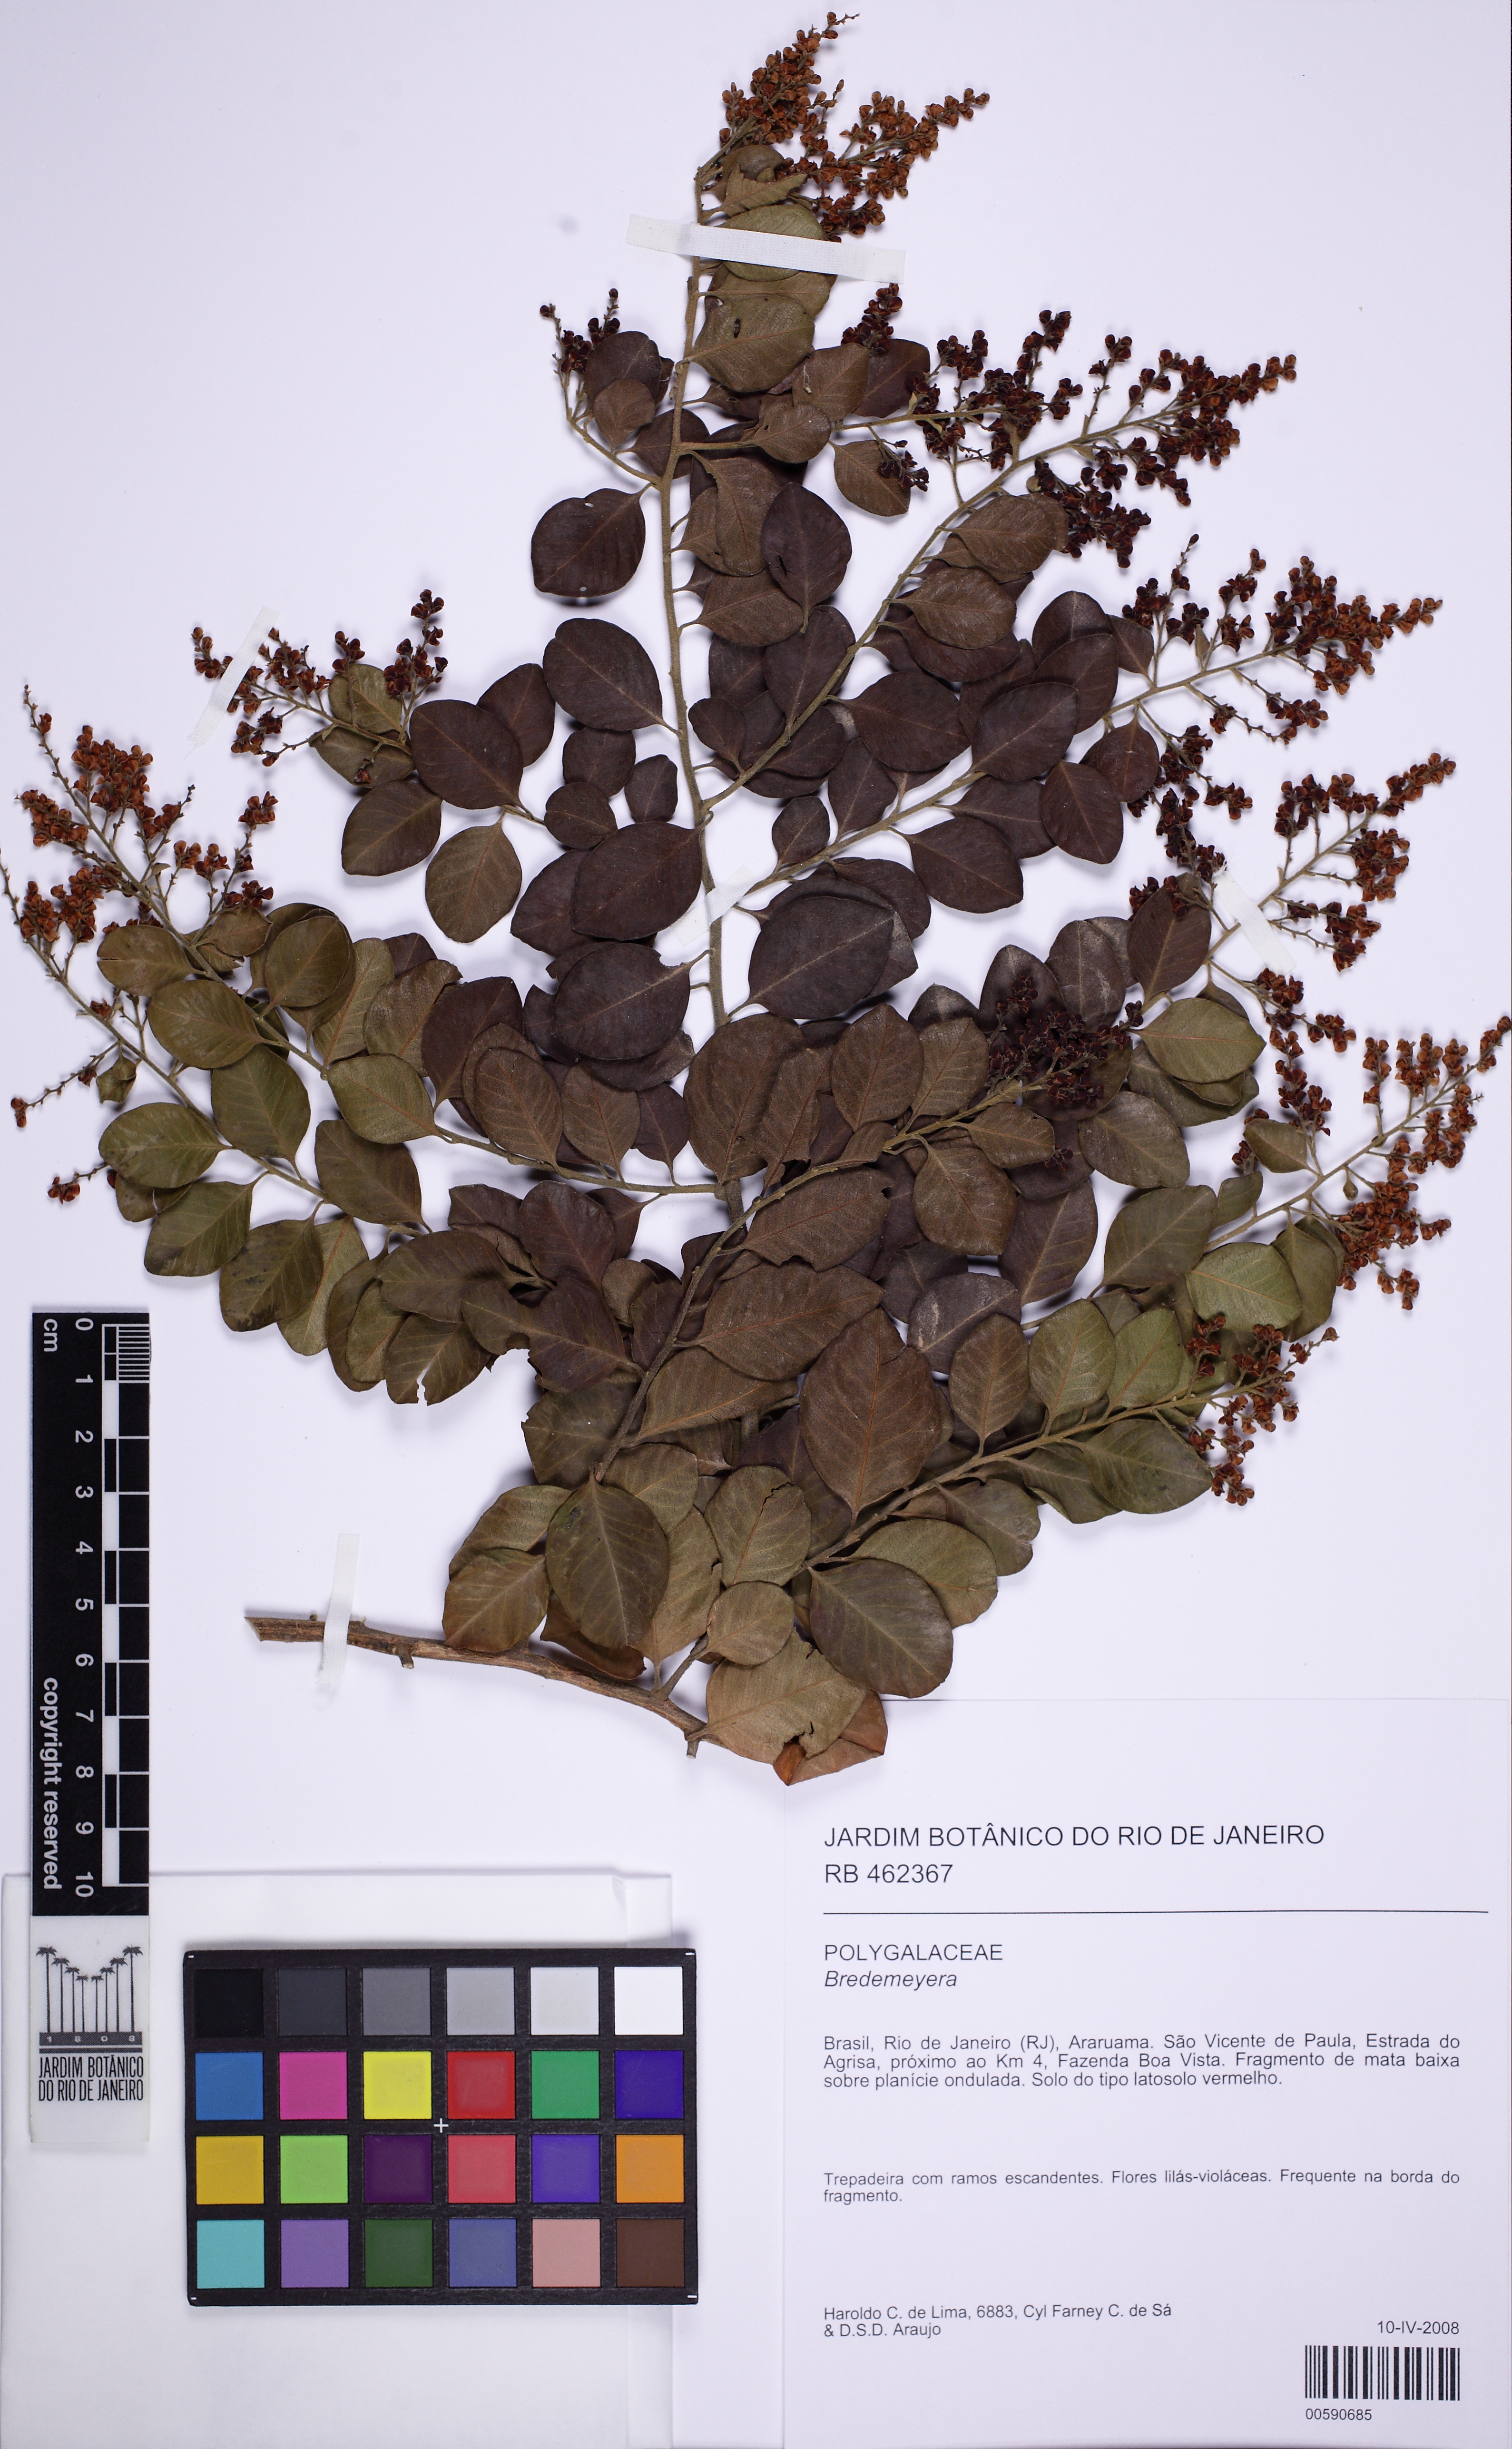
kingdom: Plantae
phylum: Tracheophyta
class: Magnoliopsida
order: Fabales
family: Polygalaceae
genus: Bredemeyera
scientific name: Bredemeyera atlantica
